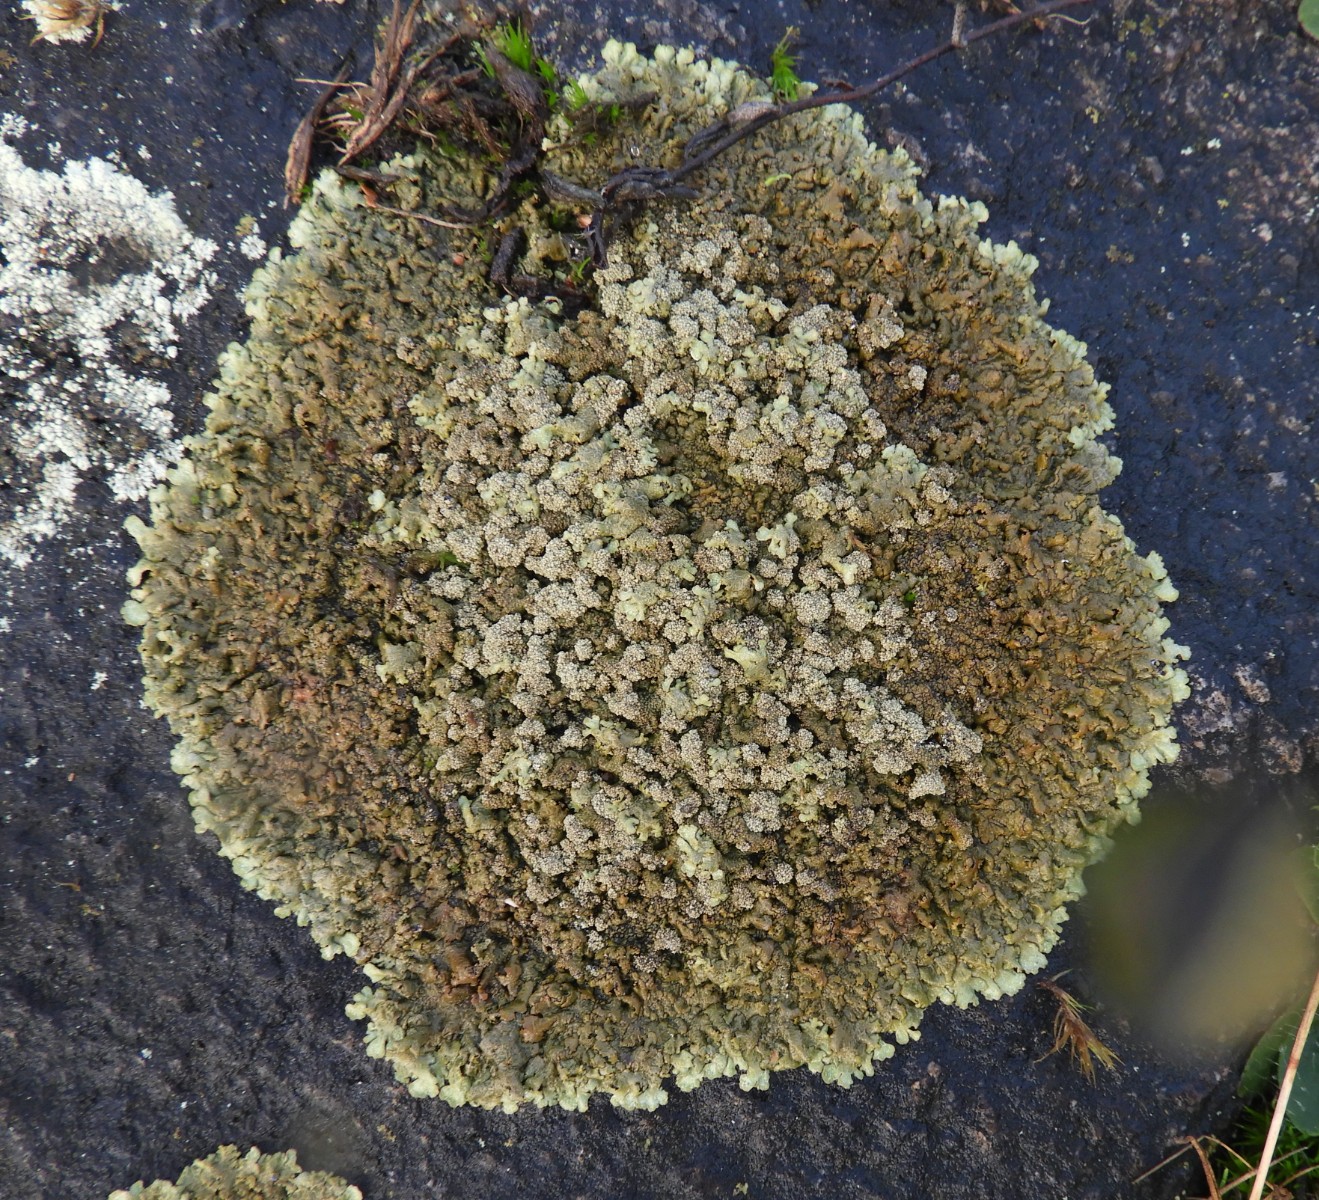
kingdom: Fungi
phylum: Ascomycota
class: Lecanoromycetes
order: Lecanorales
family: Parmeliaceae
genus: Xanthoparmelia
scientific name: Xanthoparmelia loxodes
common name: knudret skållav
